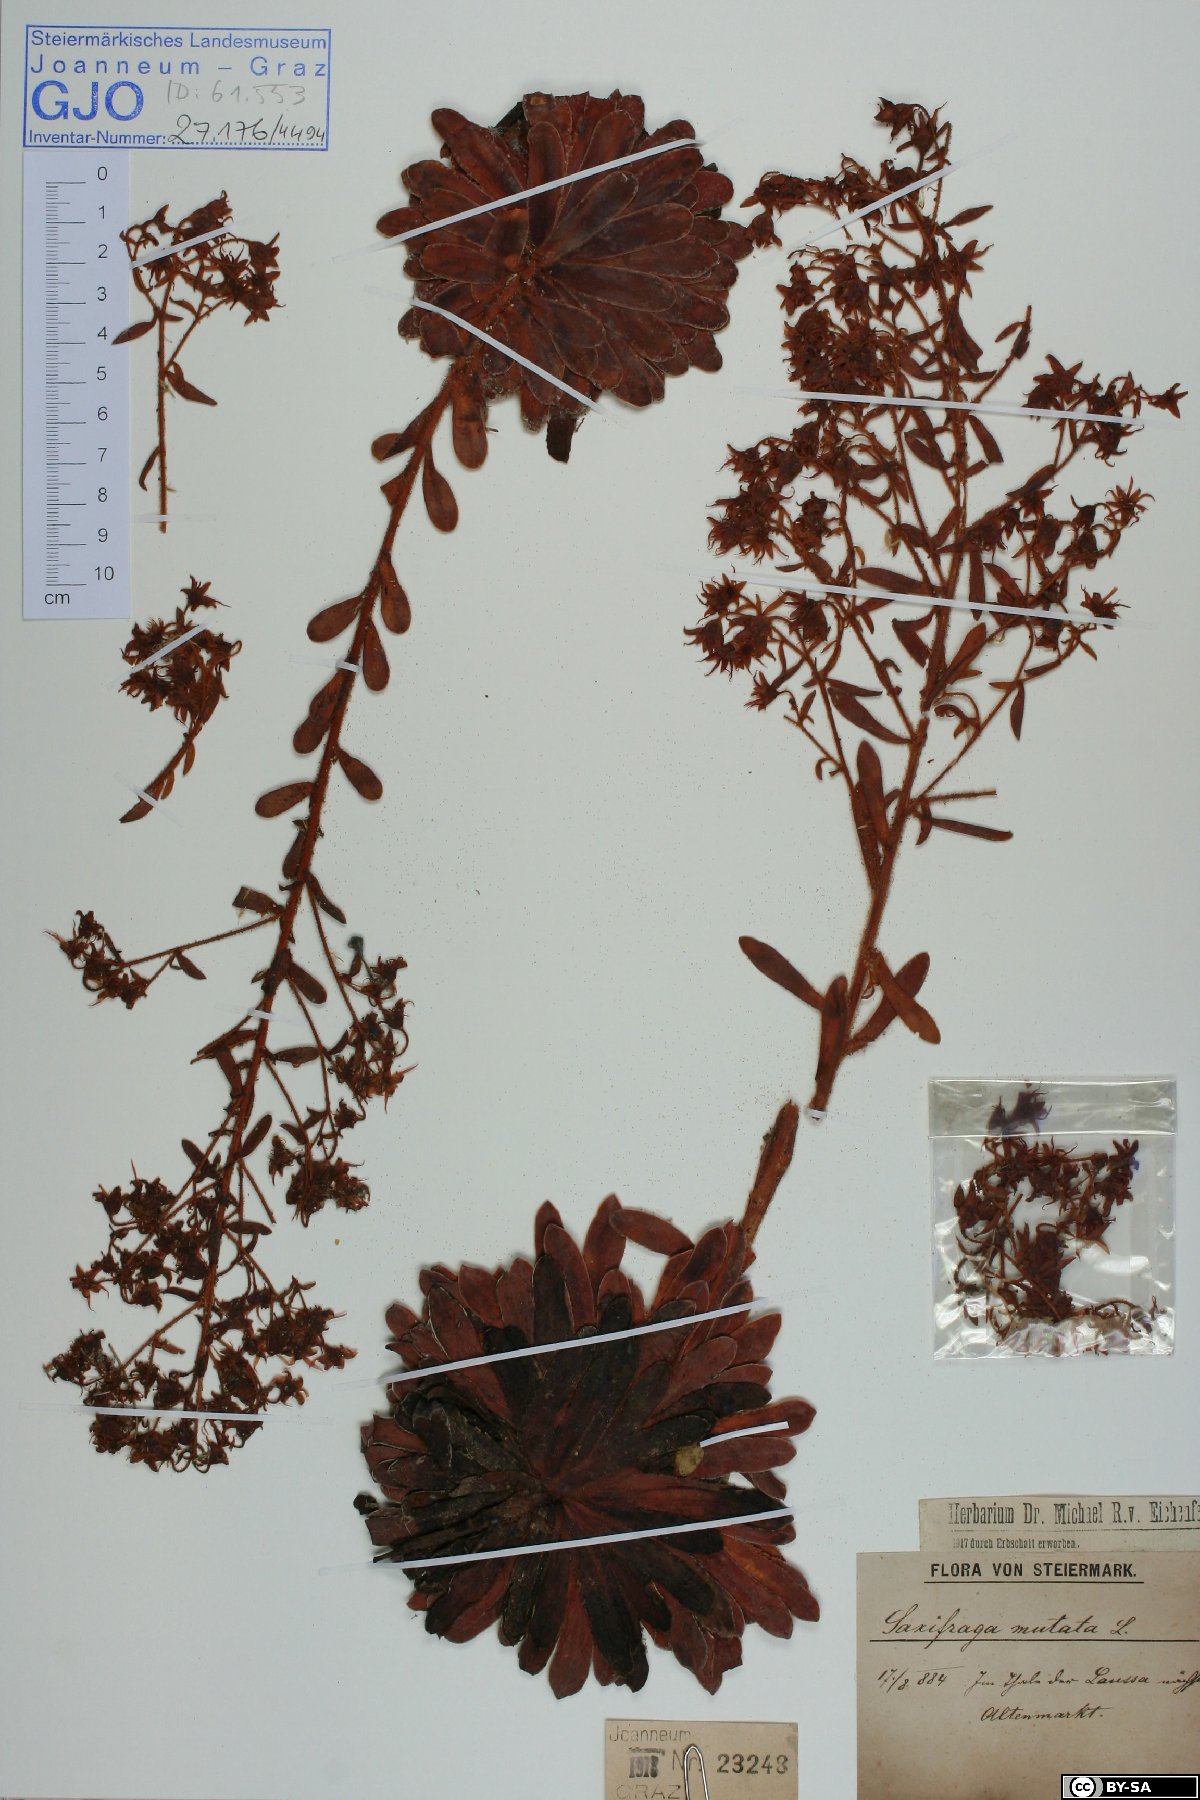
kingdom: Plantae
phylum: Tracheophyta
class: Magnoliopsida
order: Saxifragales
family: Saxifragaceae
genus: Saxifraga
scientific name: Saxifraga mutata
